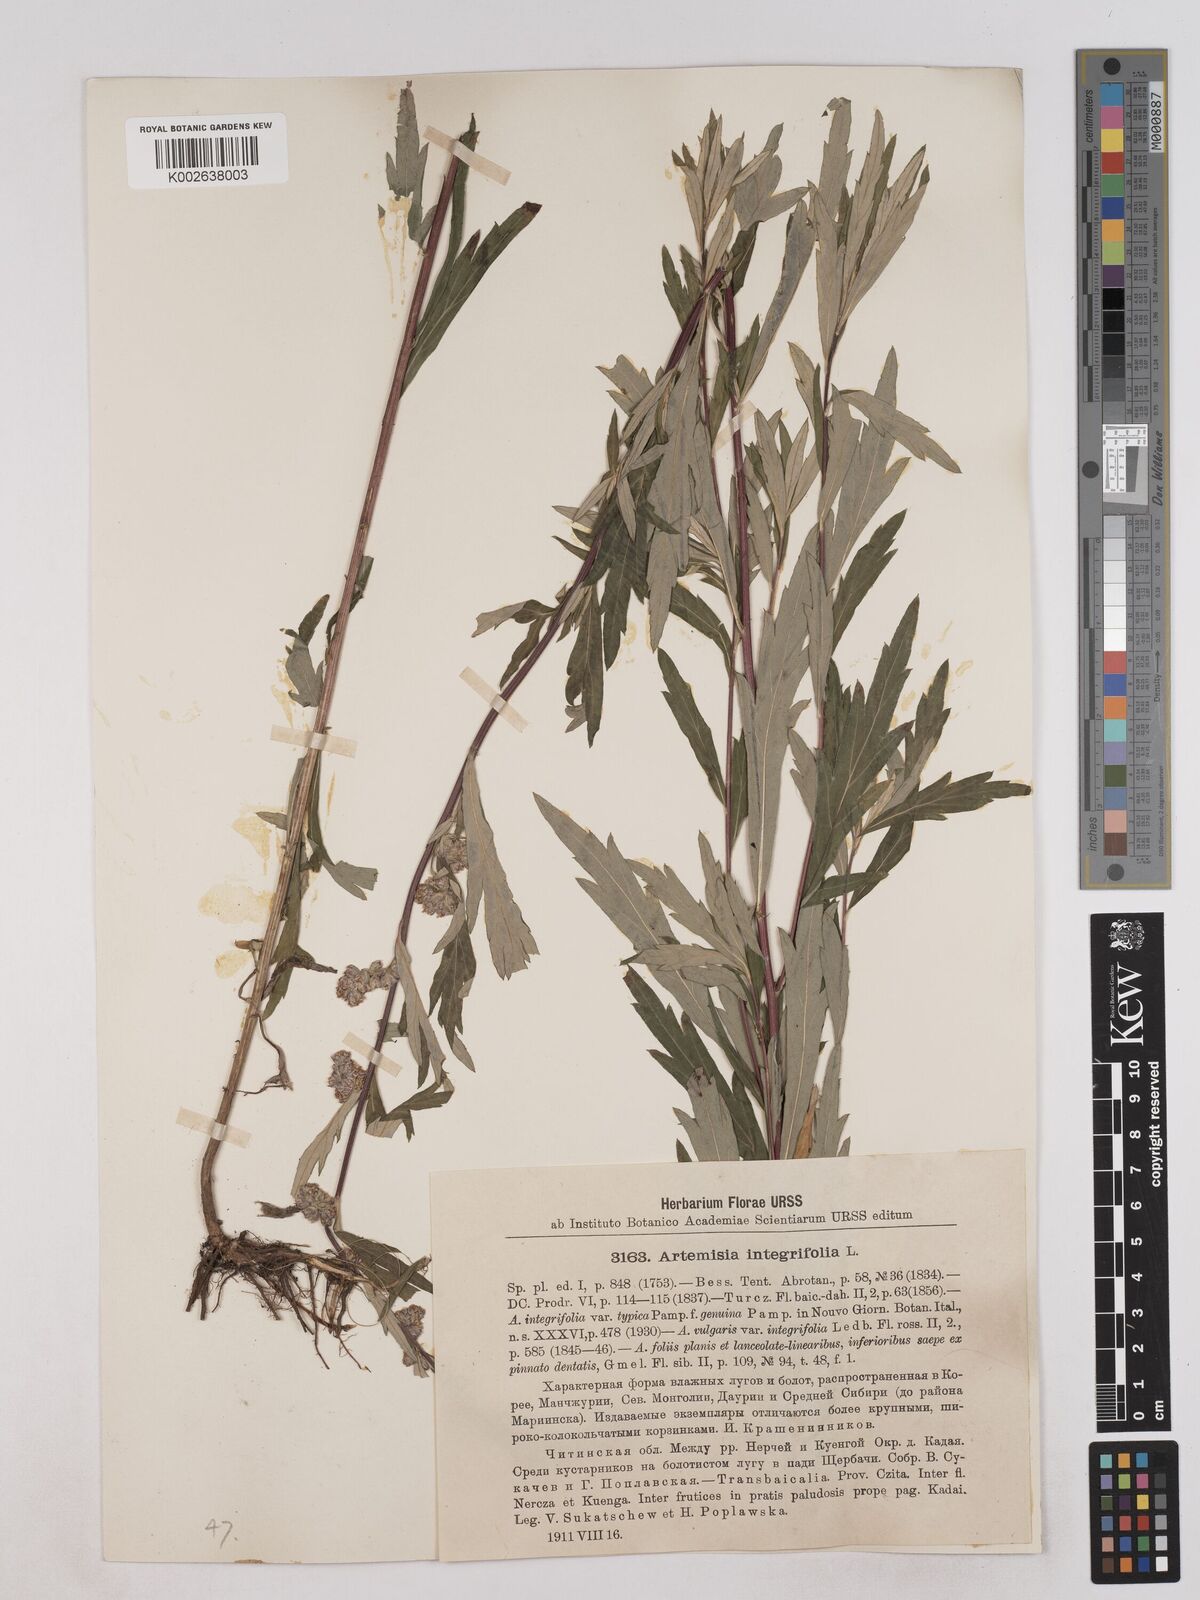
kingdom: Plantae
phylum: Tracheophyta
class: Magnoliopsida
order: Asterales
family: Asteraceae
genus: Artemisia
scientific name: Artemisia integrifolia
